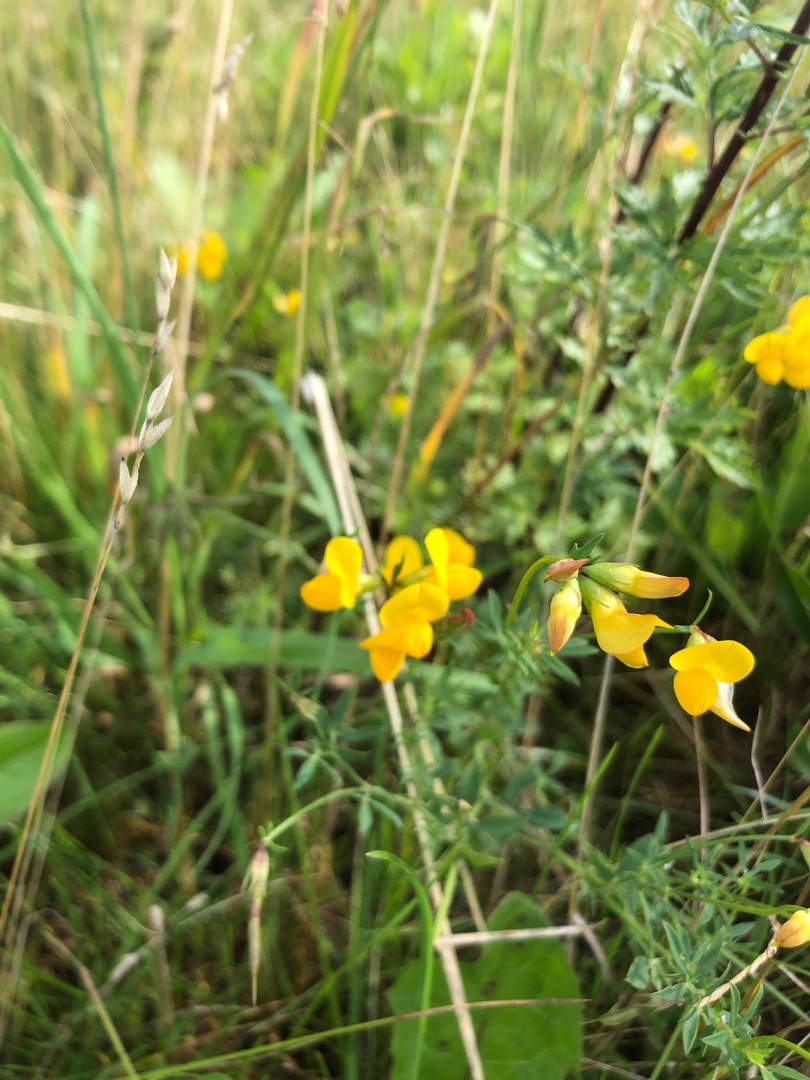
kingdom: Plantae
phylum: Tracheophyta
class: Magnoliopsida
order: Fabales
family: Fabaceae
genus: Lotus
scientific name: Lotus corniculatus
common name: Almindelig kællingetand
